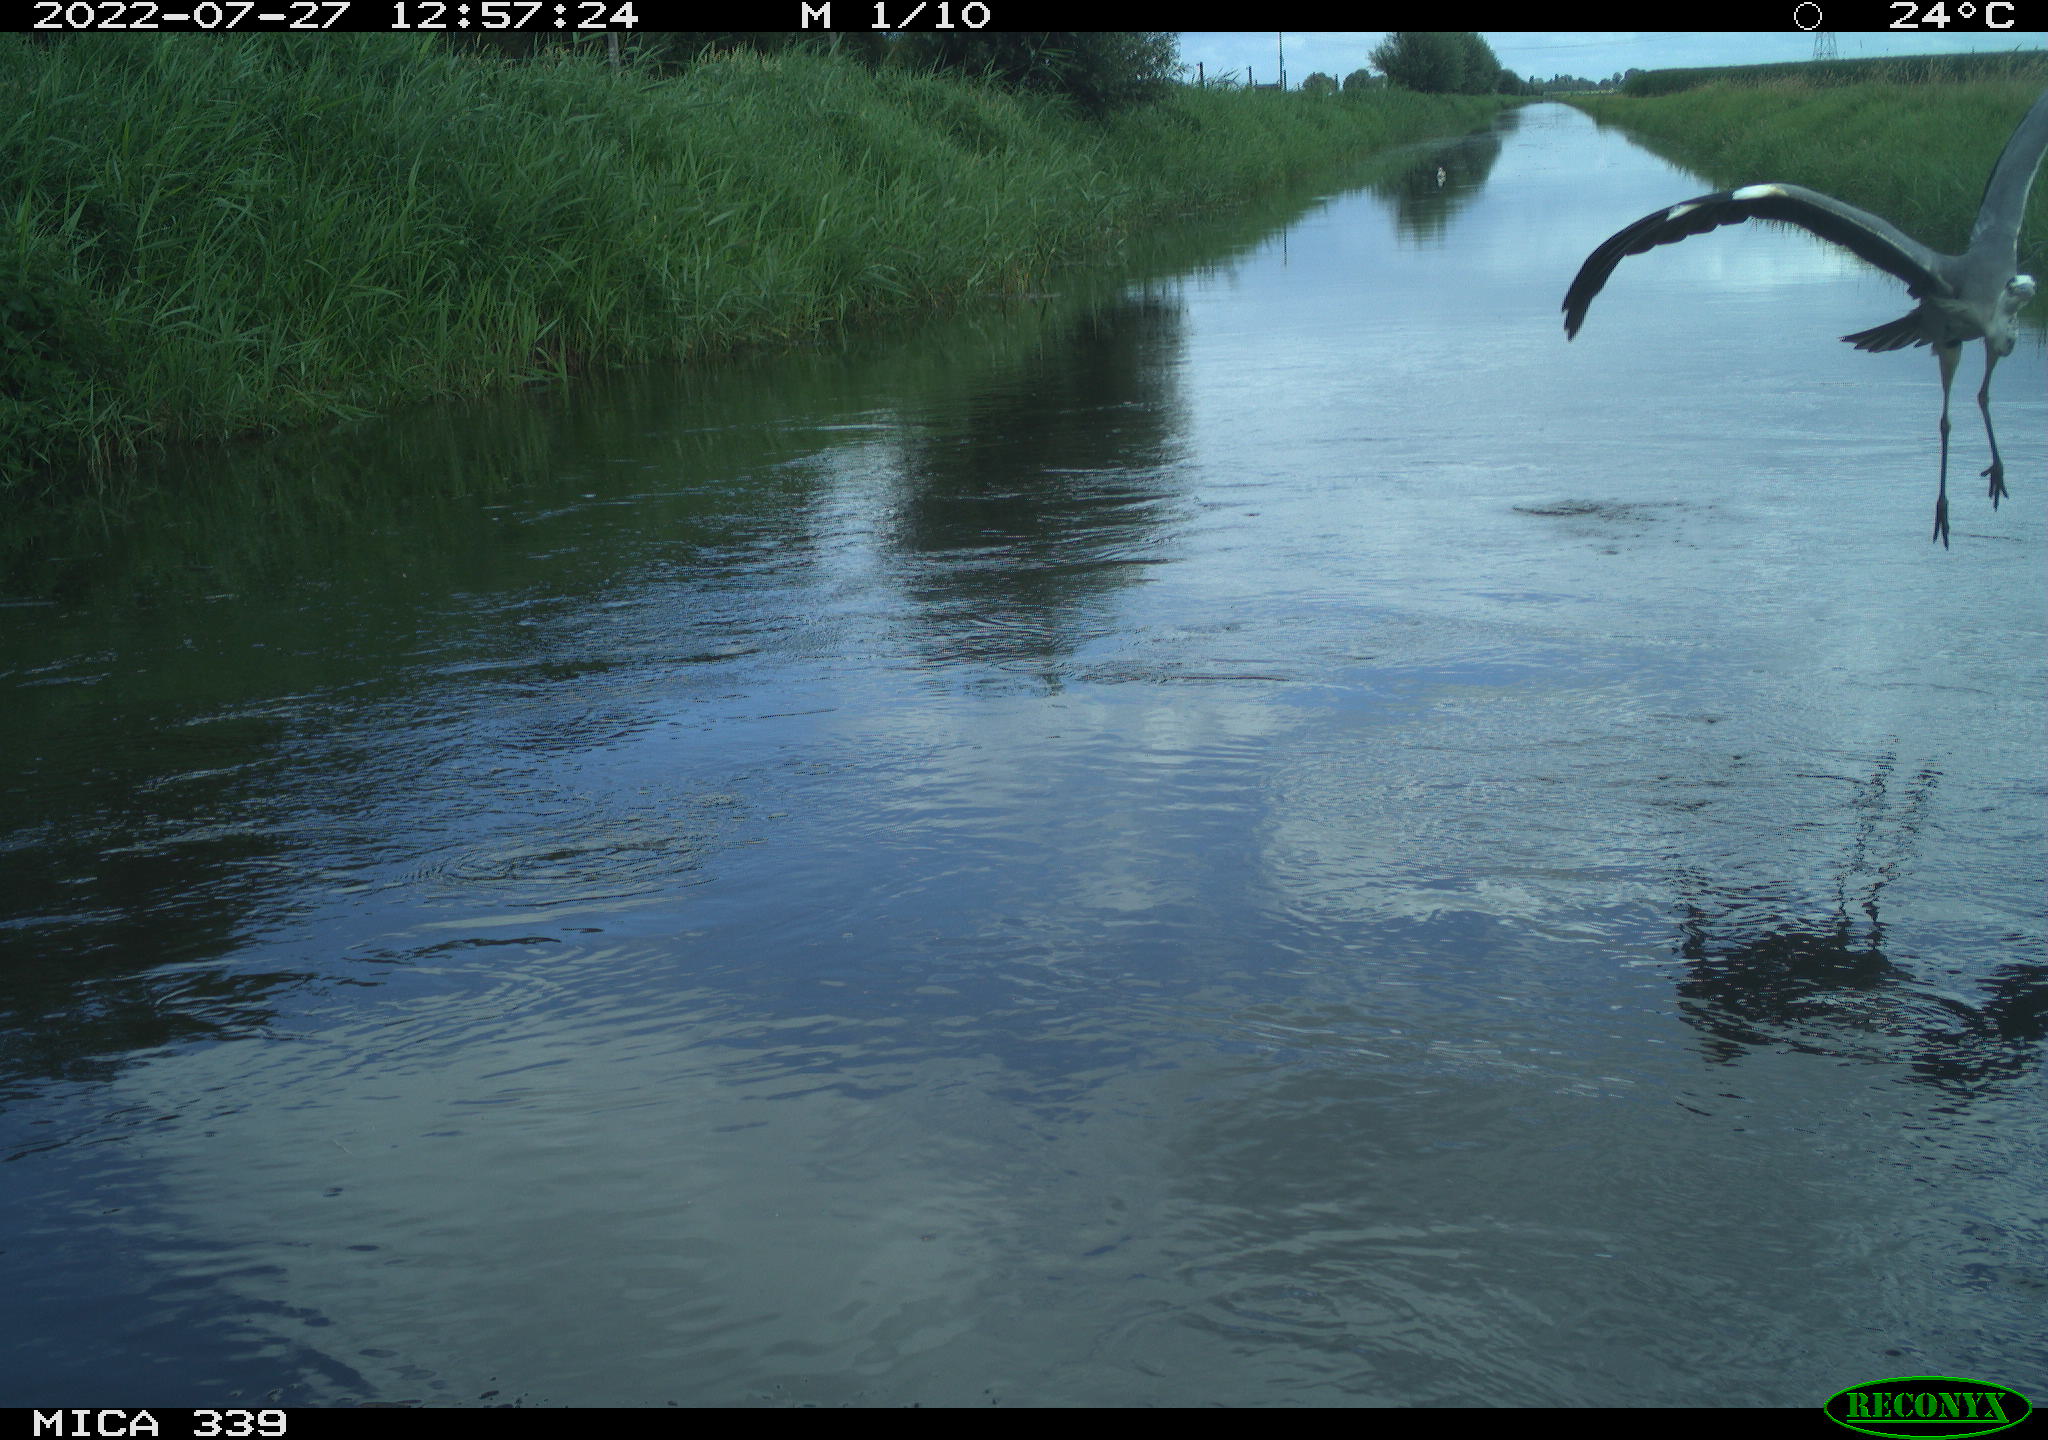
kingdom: Animalia
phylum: Chordata
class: Aves
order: Pelecaniformes
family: Ardeidae
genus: Ardea
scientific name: Ardea cinerea
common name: Grey heron
